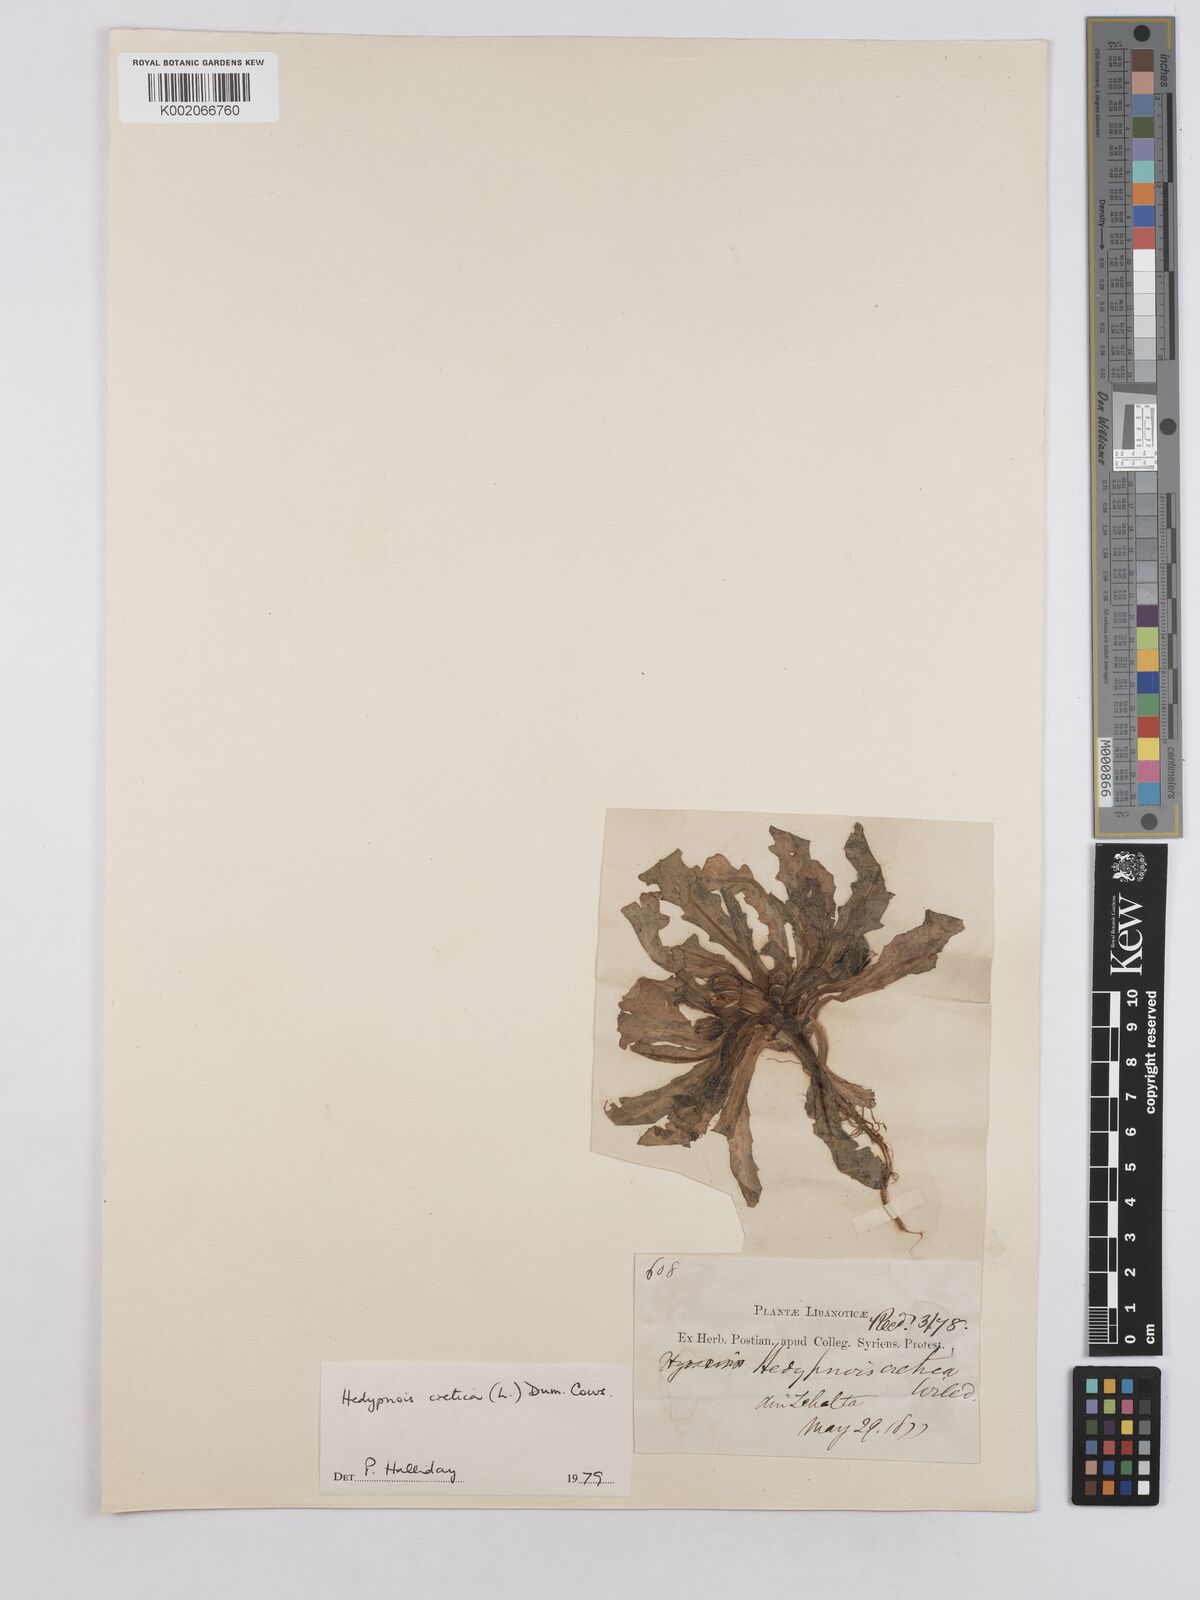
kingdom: Plantae
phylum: Tracheophyta
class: Magnoliopsida
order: Asterales
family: Asteraceae
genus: Hedypnois
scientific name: Hedypnois cretica
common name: Scaly hawkbit
